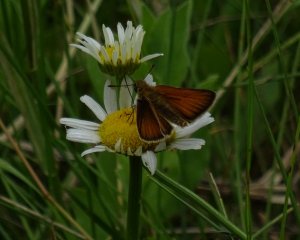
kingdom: Animalia
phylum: Arthropoda
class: Insecta
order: Lepidoptera
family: Hesperiidae
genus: Thymelicus
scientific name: Thymelicus lineola
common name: European Skipper
